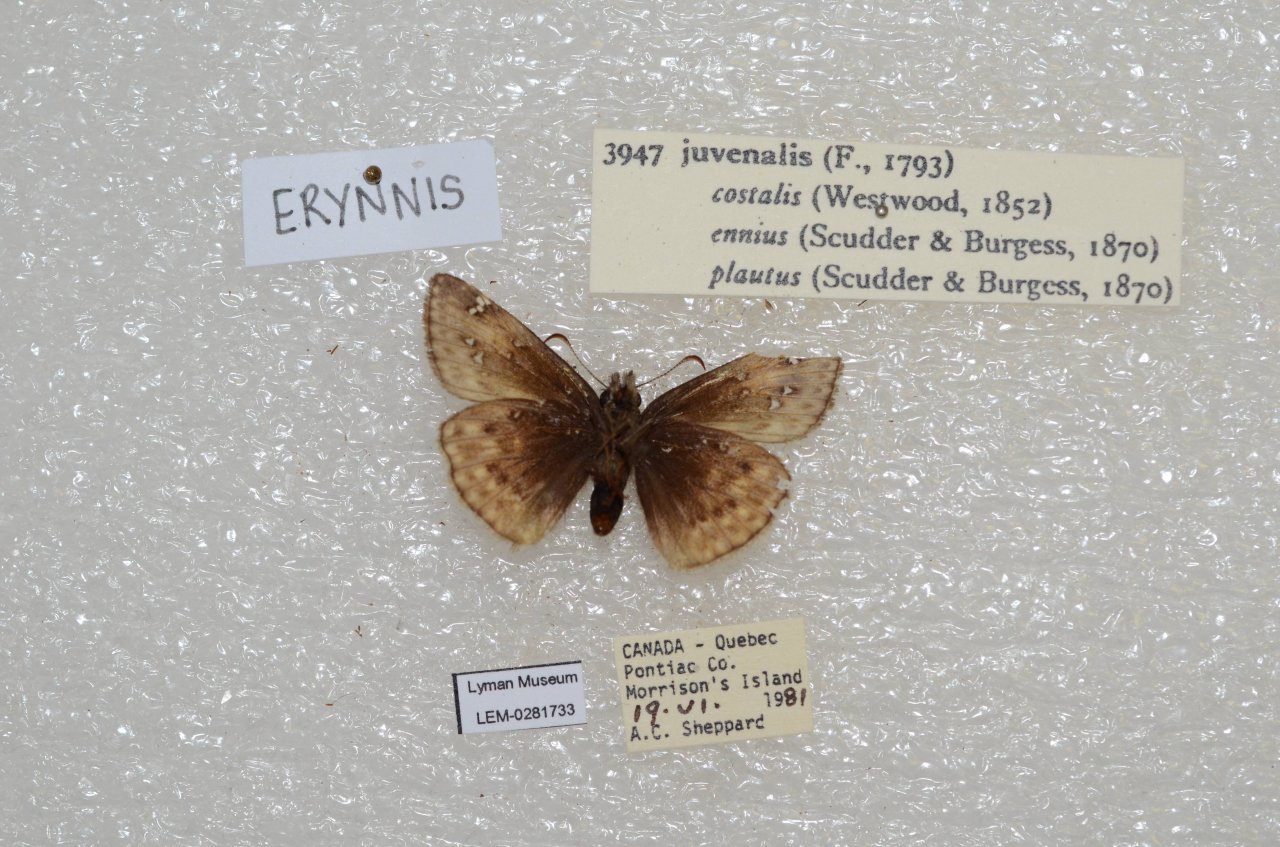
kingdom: Animalia
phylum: Arthropoda
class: Insecta
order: Lepidoptera
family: Hesperiidae
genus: Gesta
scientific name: Gesta
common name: Juvenal's Duskywing
